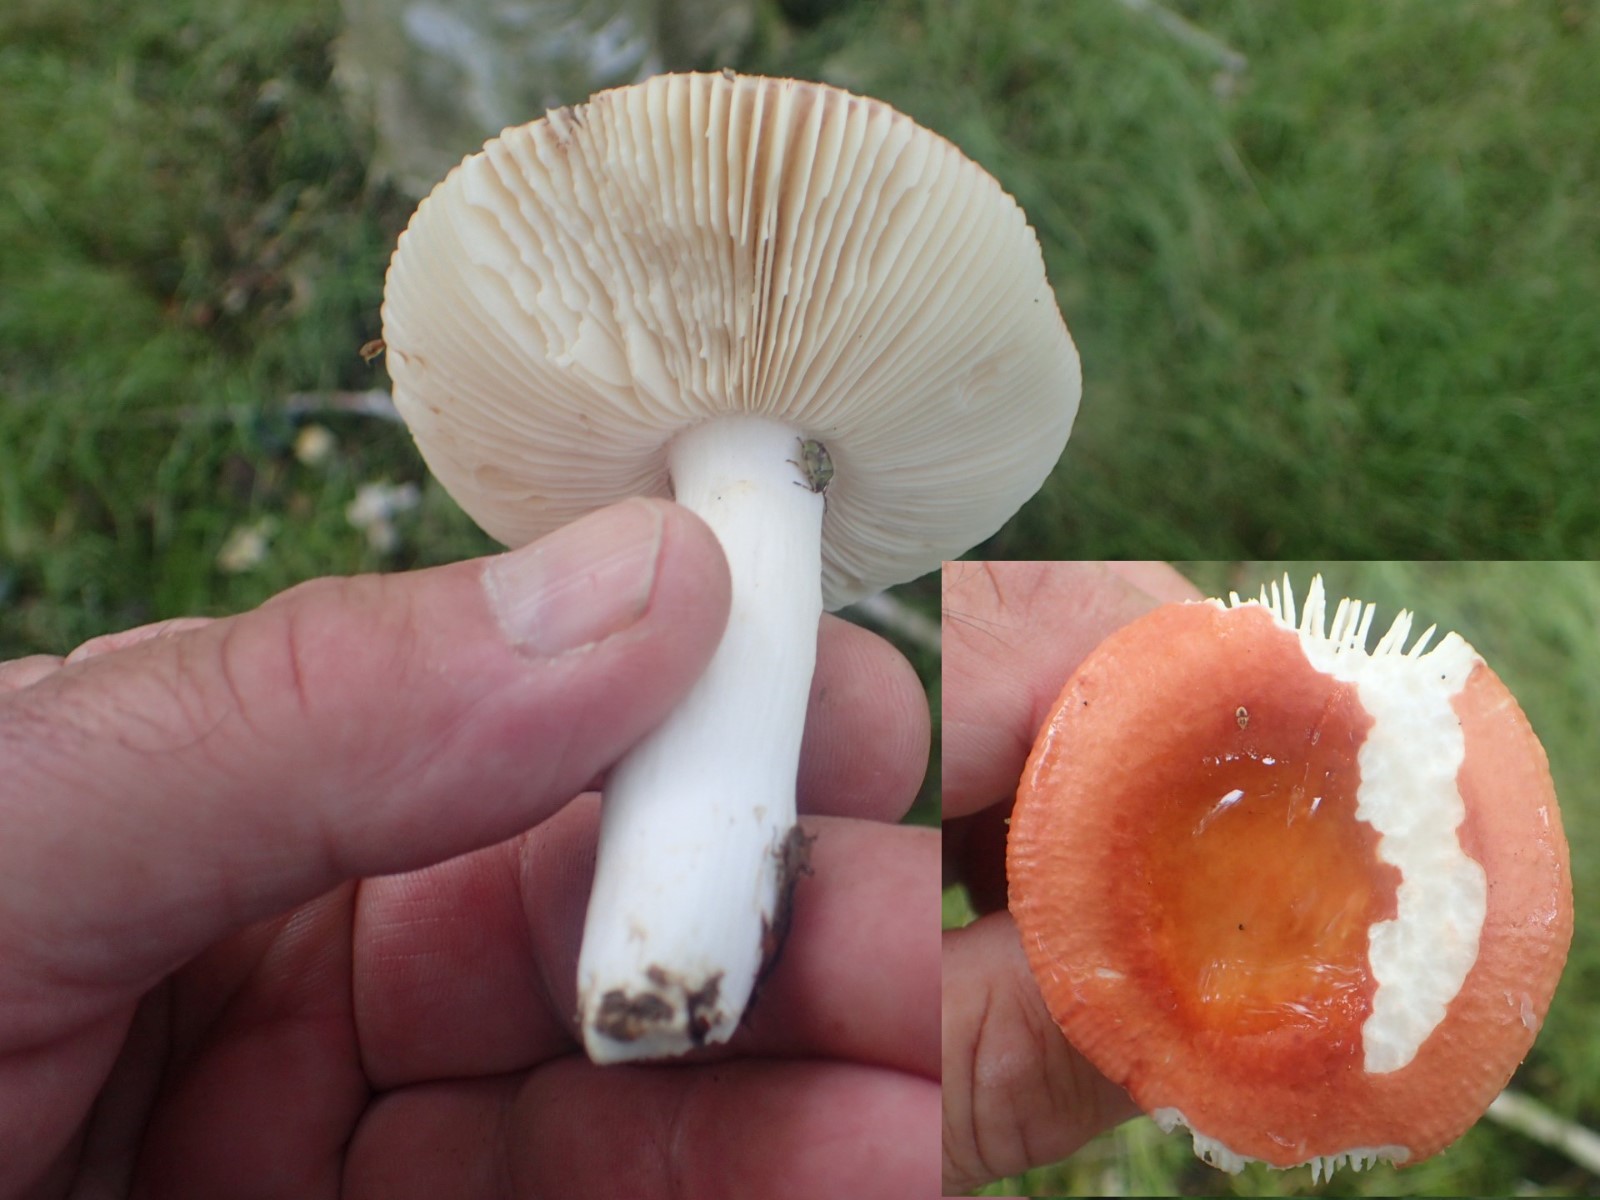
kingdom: Fungi
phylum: Basidiomycota
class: Agaricomycetes
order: Russulales
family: Russulaceae
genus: Russula
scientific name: Russula velenovskyi
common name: orangerød skørhat
